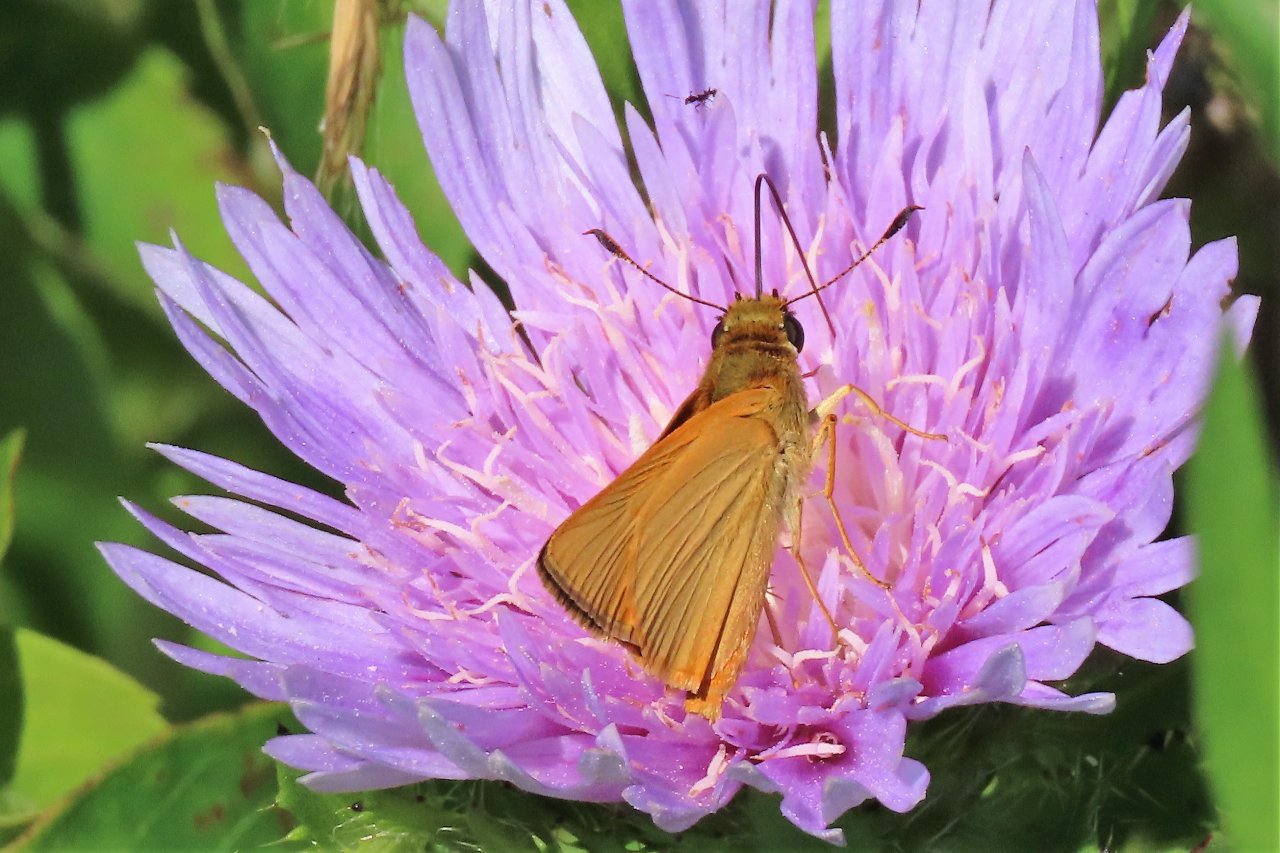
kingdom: Animalia
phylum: Arthropoda
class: Insecta
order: Lepidoptera
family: Hesperiidae
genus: Atrytone
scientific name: Atrytone delaware
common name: Delaware Skipper
